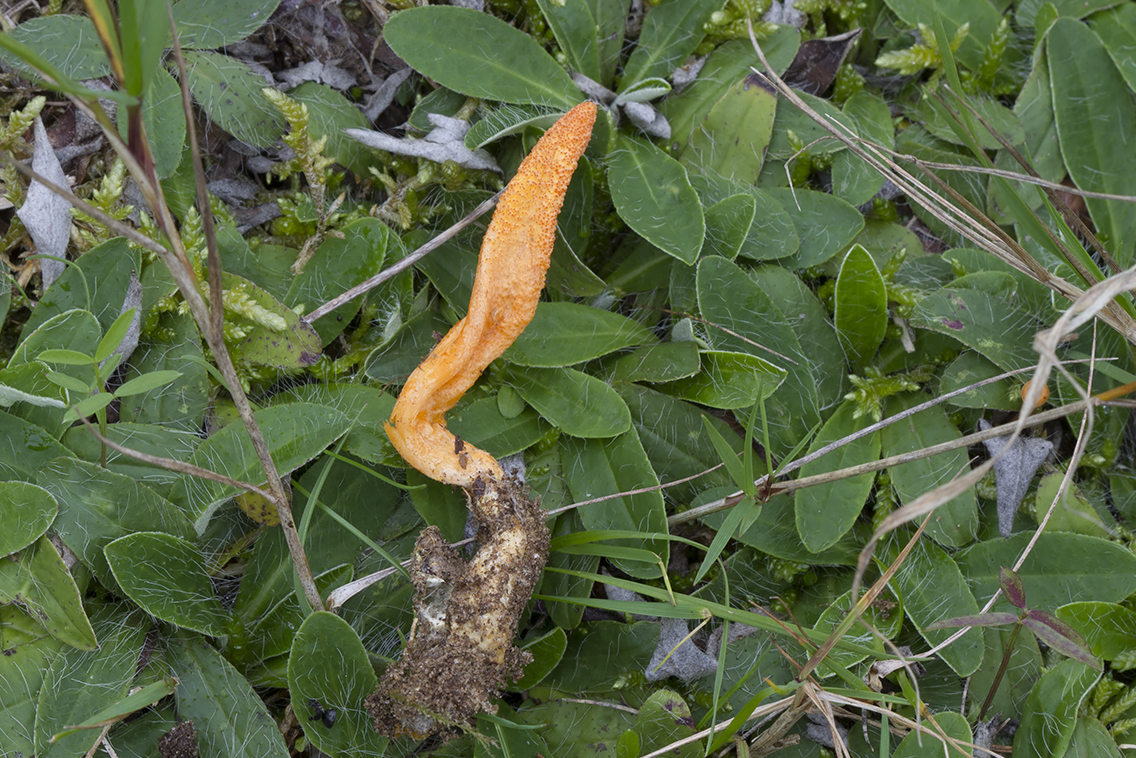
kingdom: Fungi
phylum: Ascomycota
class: Sordariomycetes
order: Hypocreales
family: Cordycipitaceae
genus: Cordyceps
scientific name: Cordyceps militaris
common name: puppe-snyltekølle
